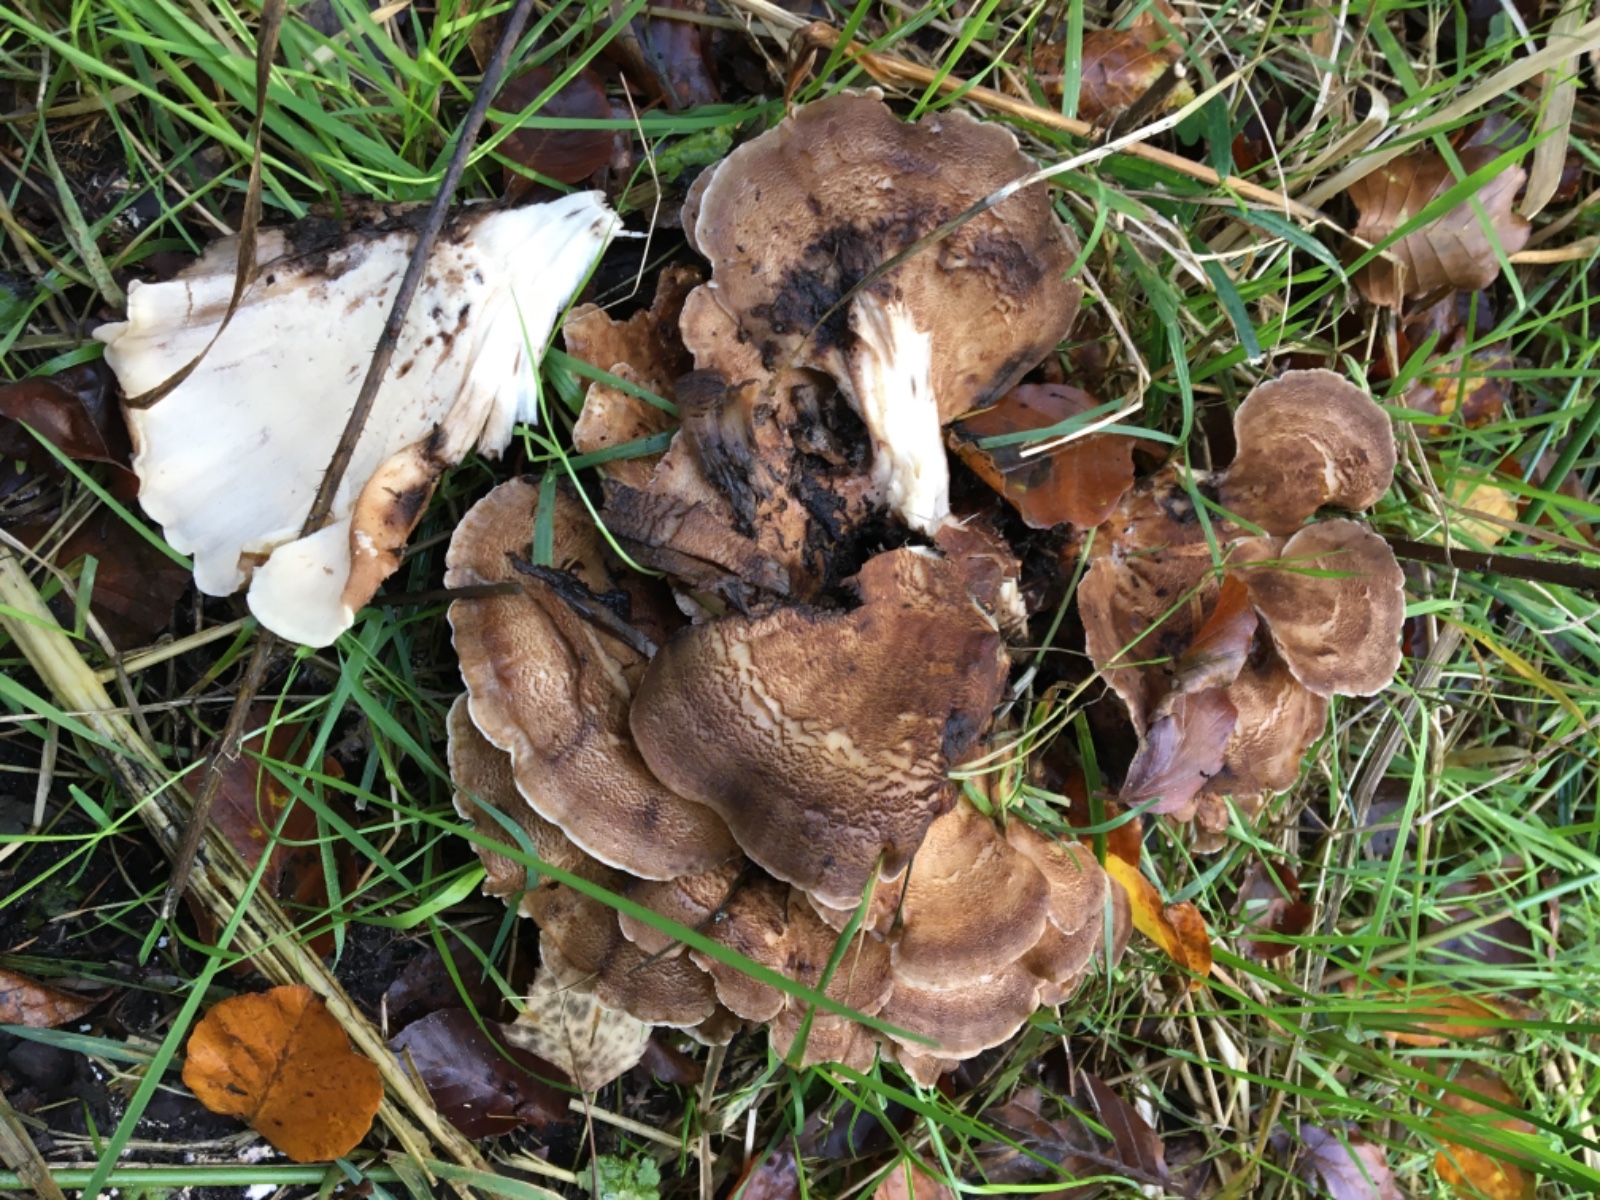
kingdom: Fungi
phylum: Basidiomycota
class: Agaricomycetes
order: Polyporales
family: Meripilaceae
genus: Meripilus
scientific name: Meripilus giganteus
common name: kæmpeporesvamp
